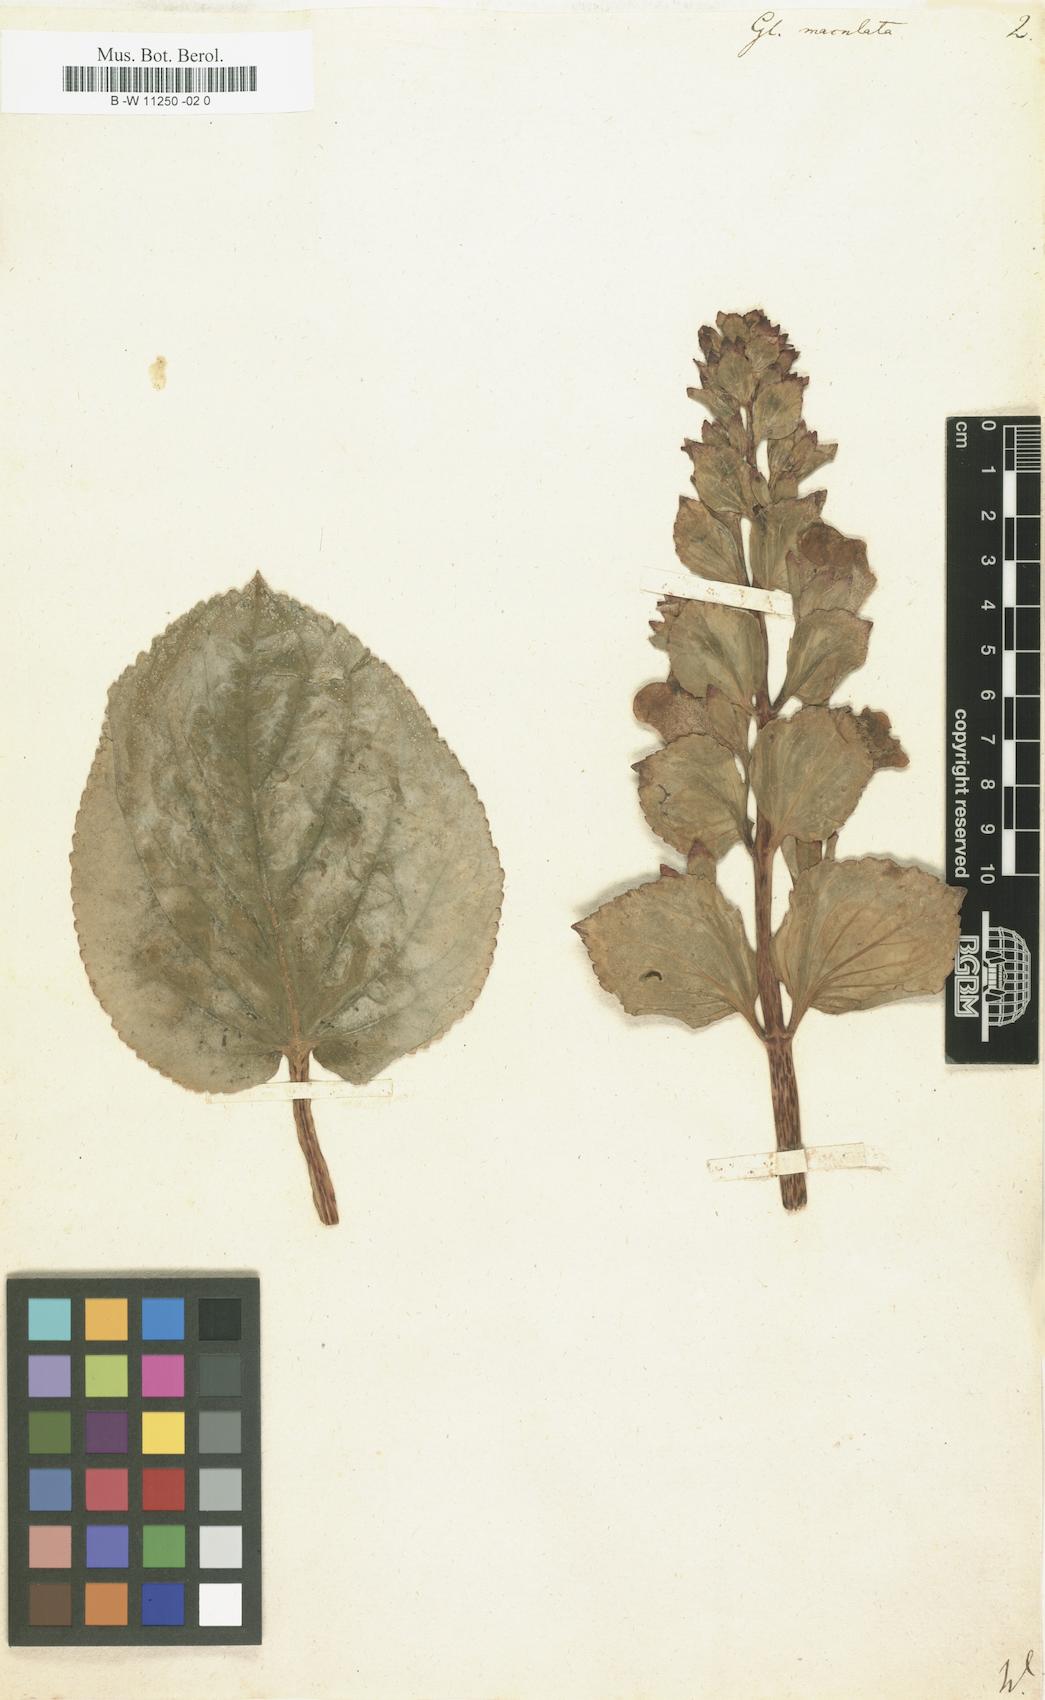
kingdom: Plantae
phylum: Tracheophyta
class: Magnoliopsida
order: Lamiales
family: Gesneriaceae
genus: Gloxinia
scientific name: Gloxinia perennis
